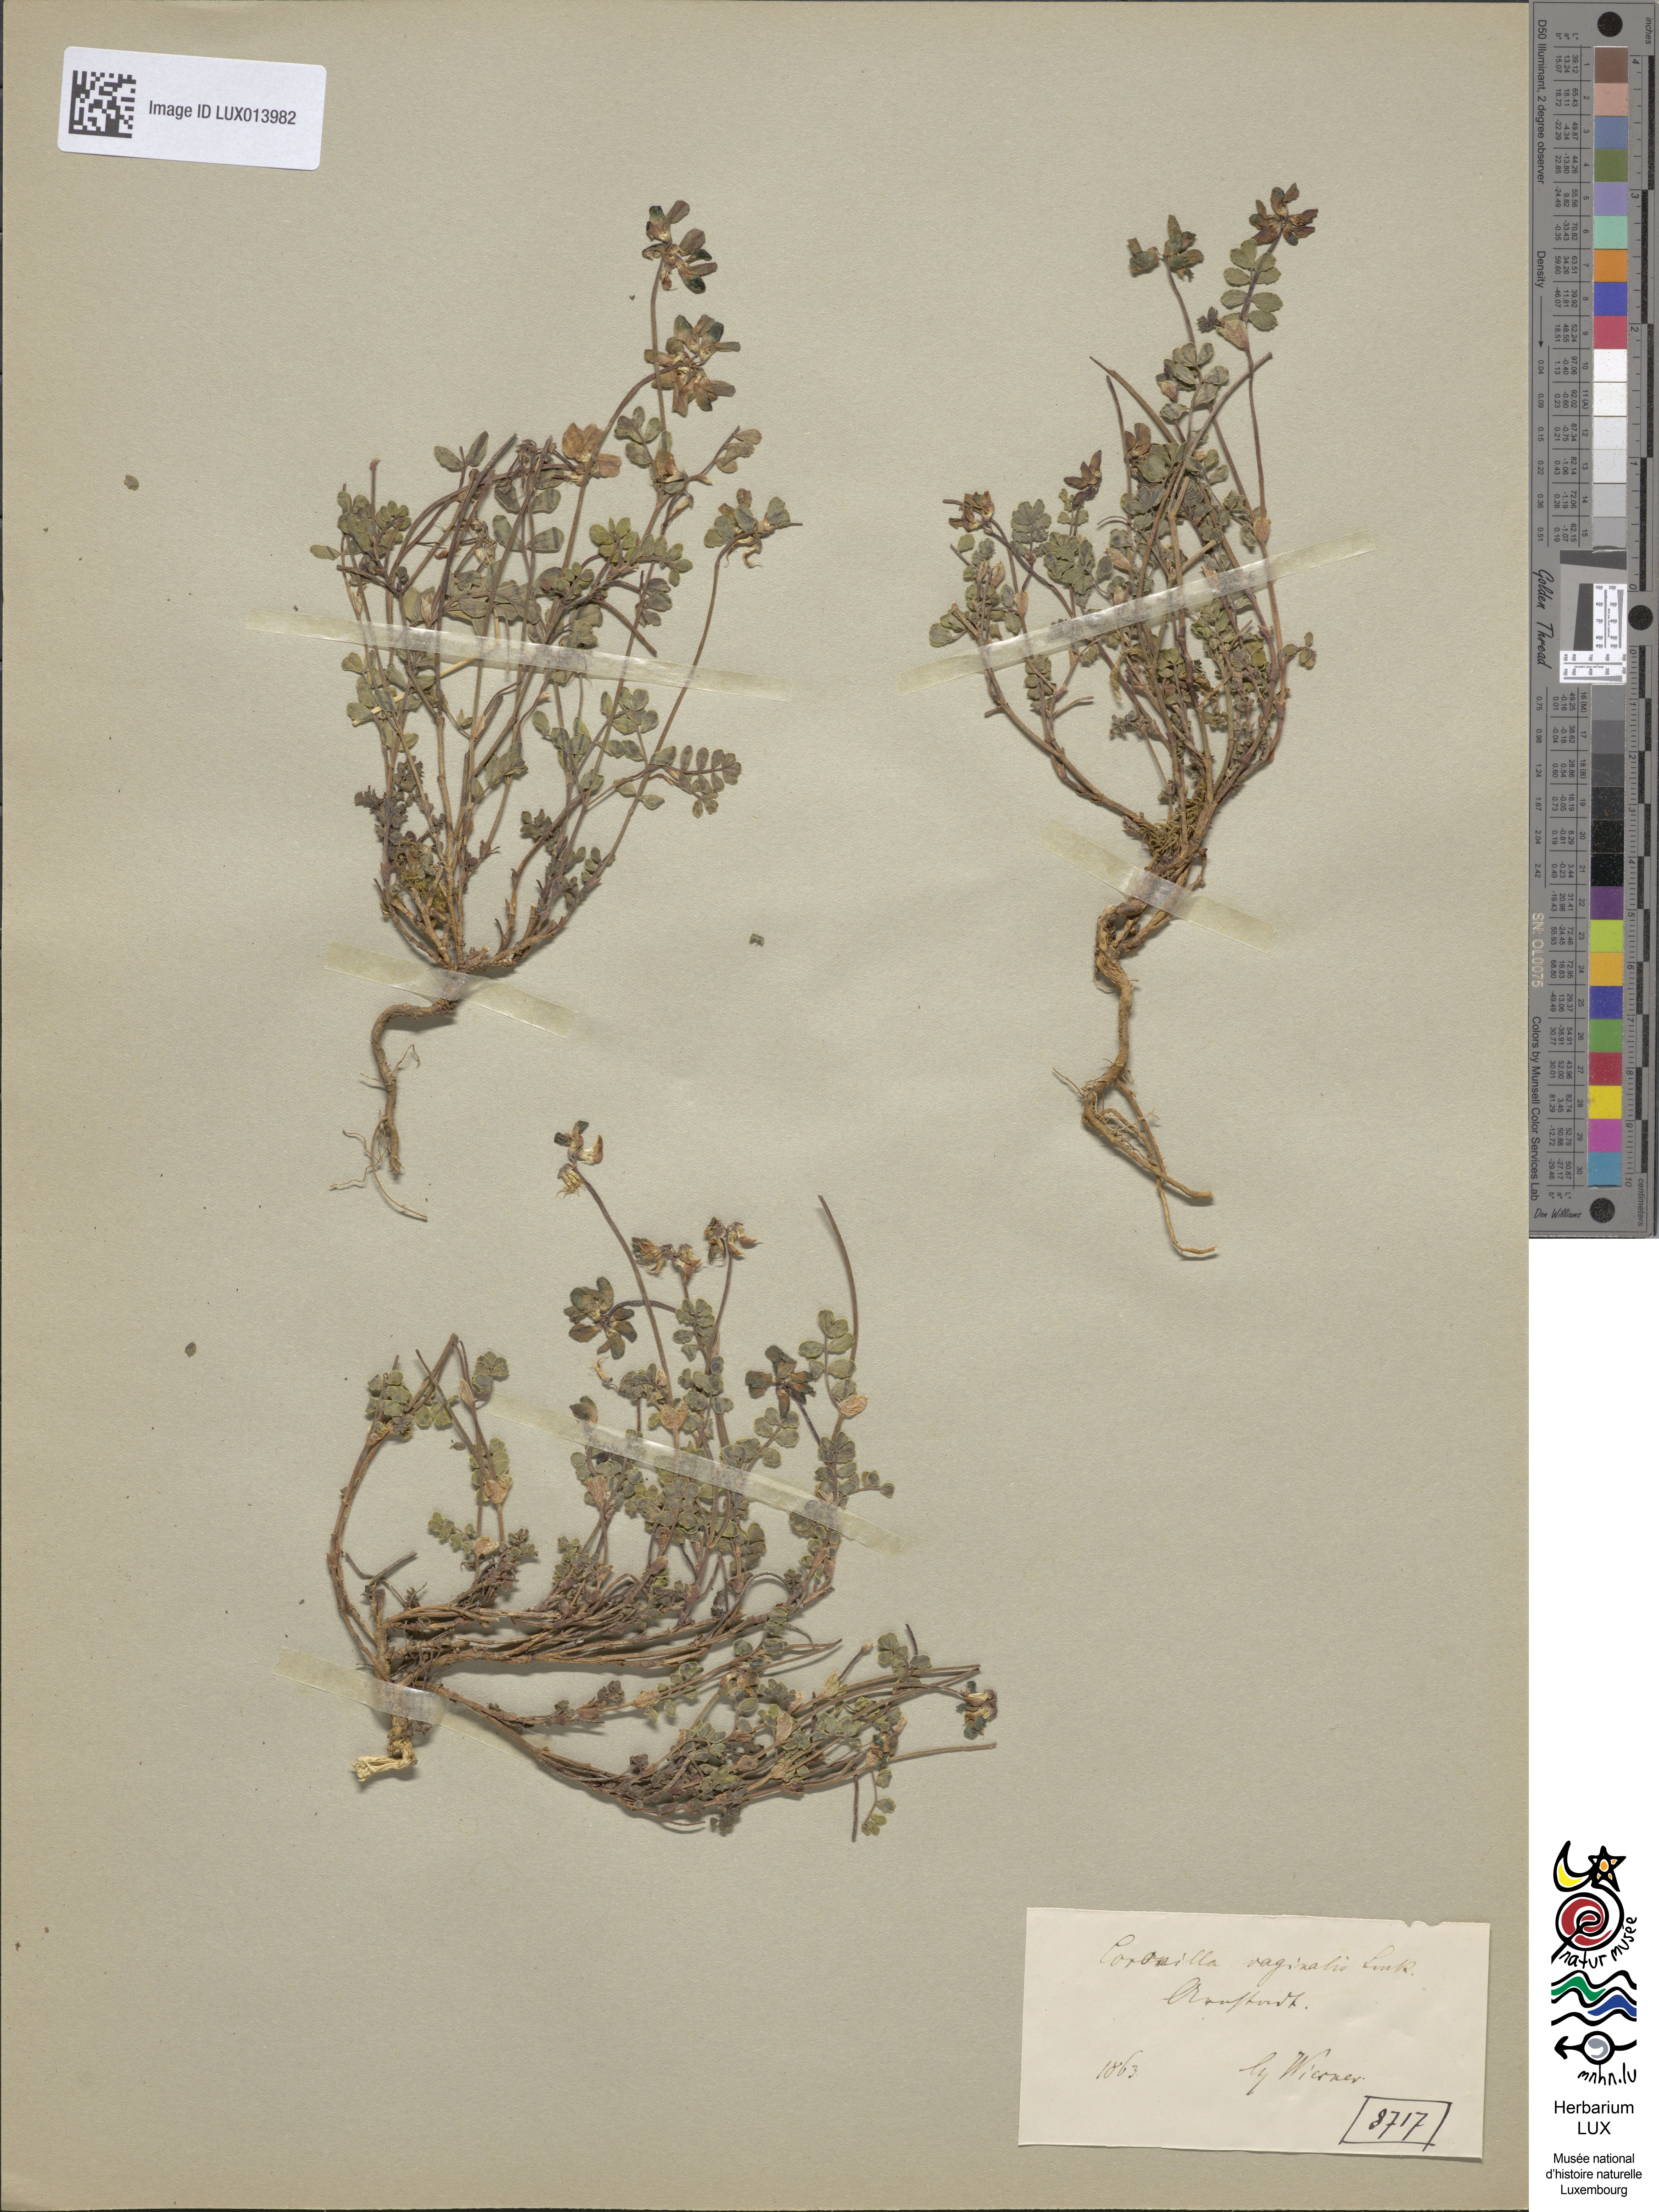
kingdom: Plantae
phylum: Tracheophyta
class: Magnoliopsida
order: Fabales
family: Fabaceae
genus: Coronilla
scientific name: Coronilla vaginalis
